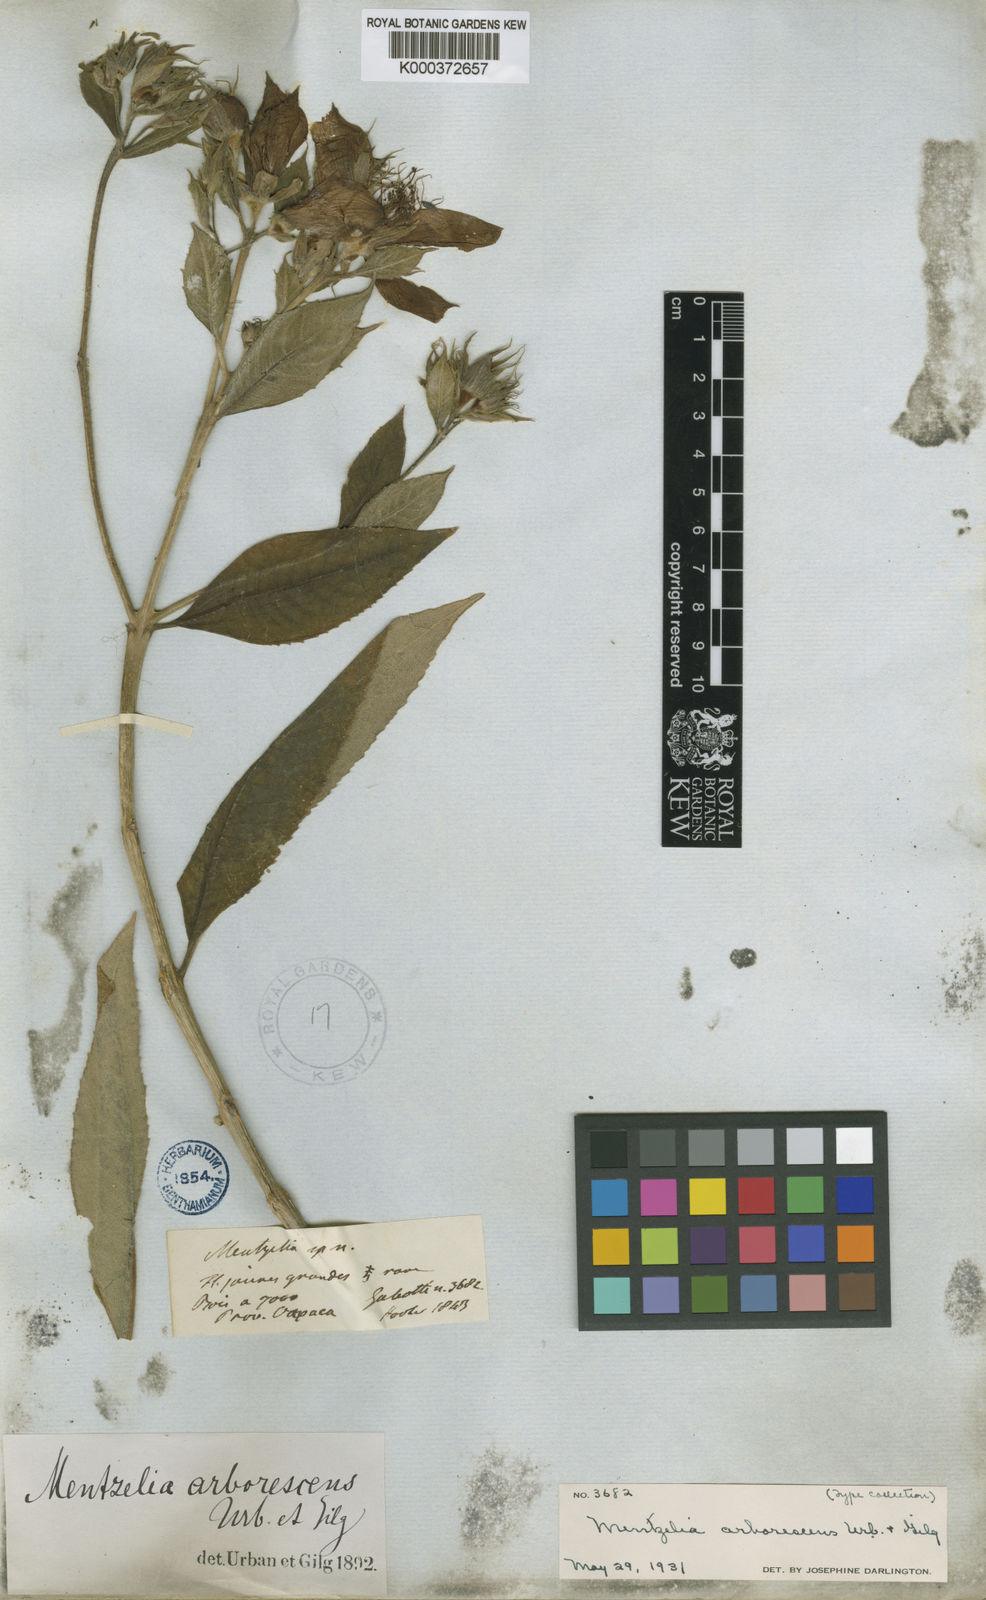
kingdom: Plantae
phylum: Tracheophyta
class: Magnoliopsida
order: Cornales
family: Loasaceae
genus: Mentzelia
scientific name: Mentzelia arborescens
